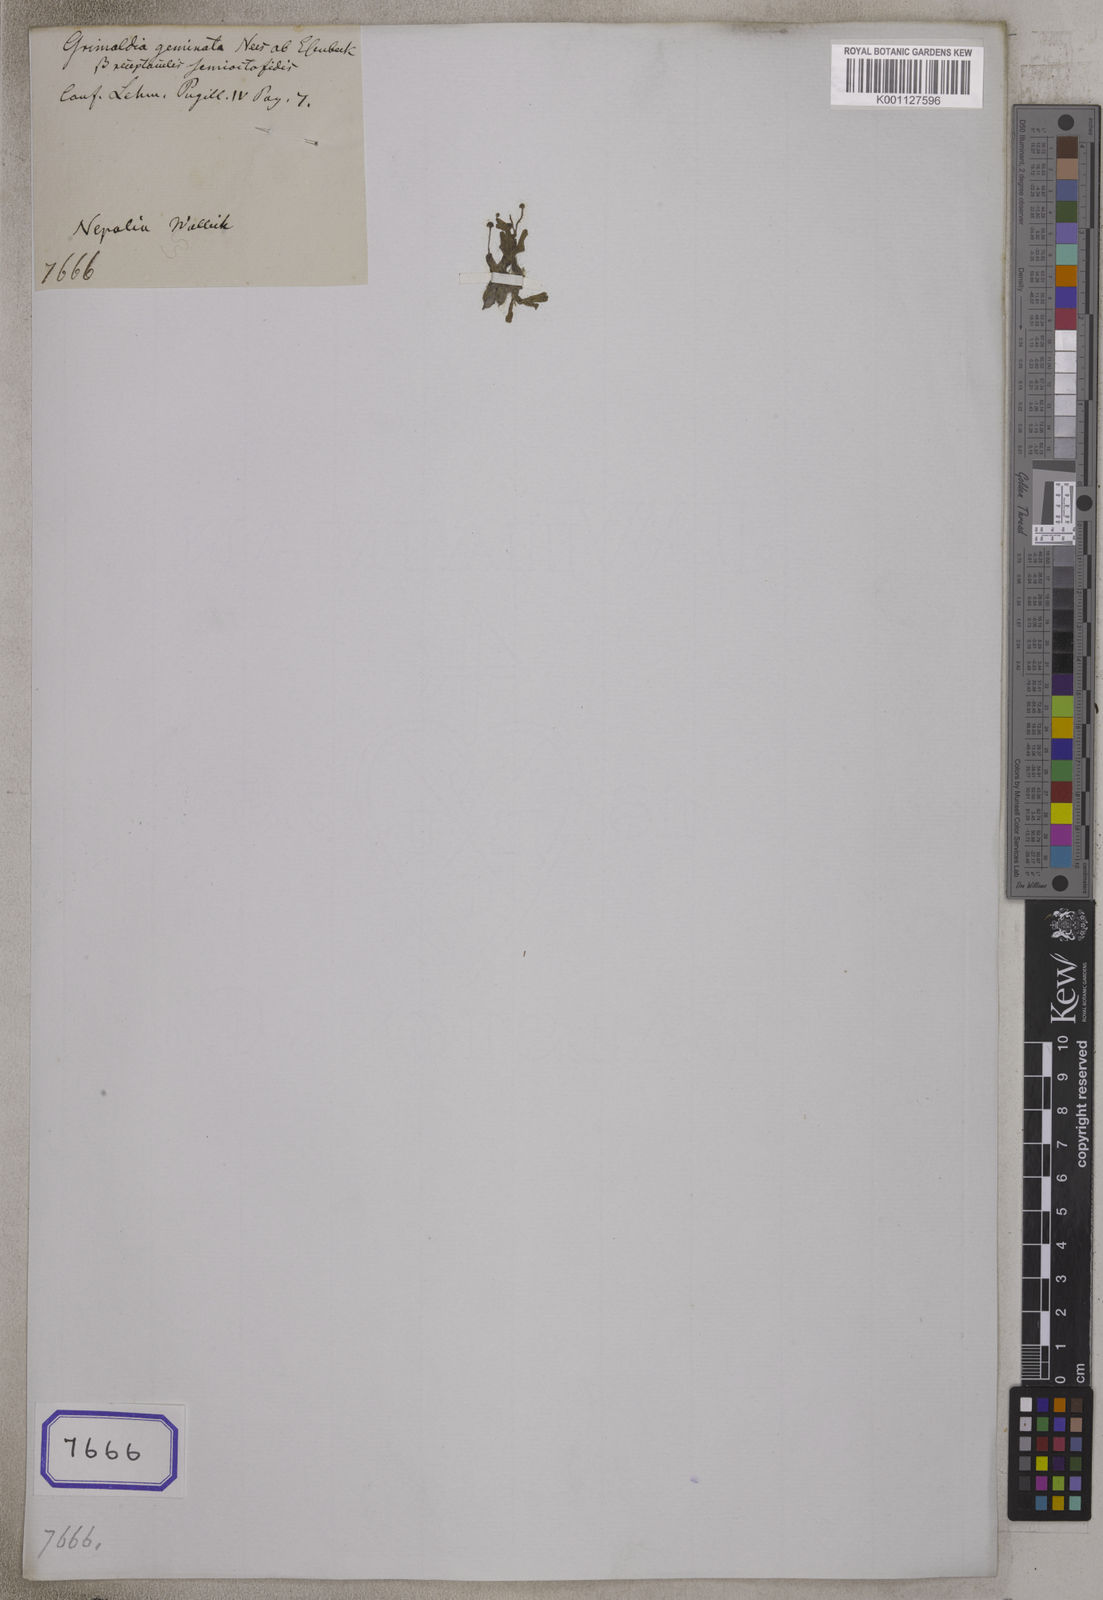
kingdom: Plantae
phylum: Tracheophyta
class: Magnoliopsida
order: Fabales
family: Fabaceae
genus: Chamaecrista
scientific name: Chamaecrista
